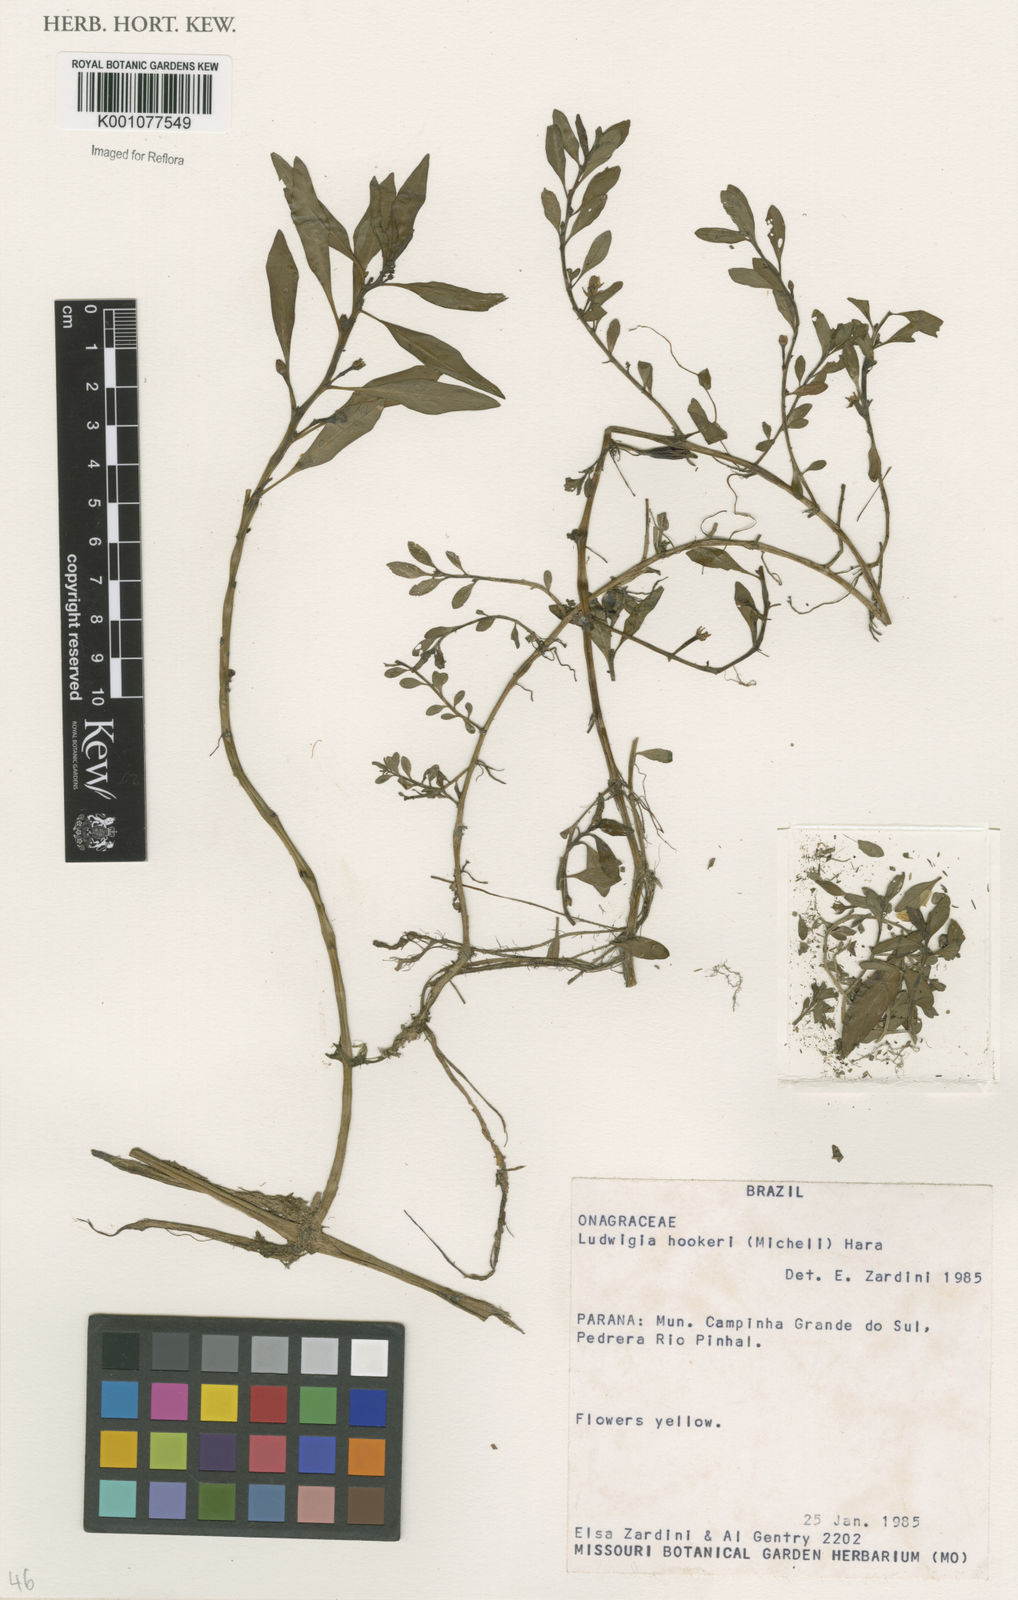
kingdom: Plantae
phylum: Tracheophyta
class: Magnoliopsida
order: Myrtales
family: Onagraceae
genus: Ludwigia
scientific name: Ludwigia hookeri
